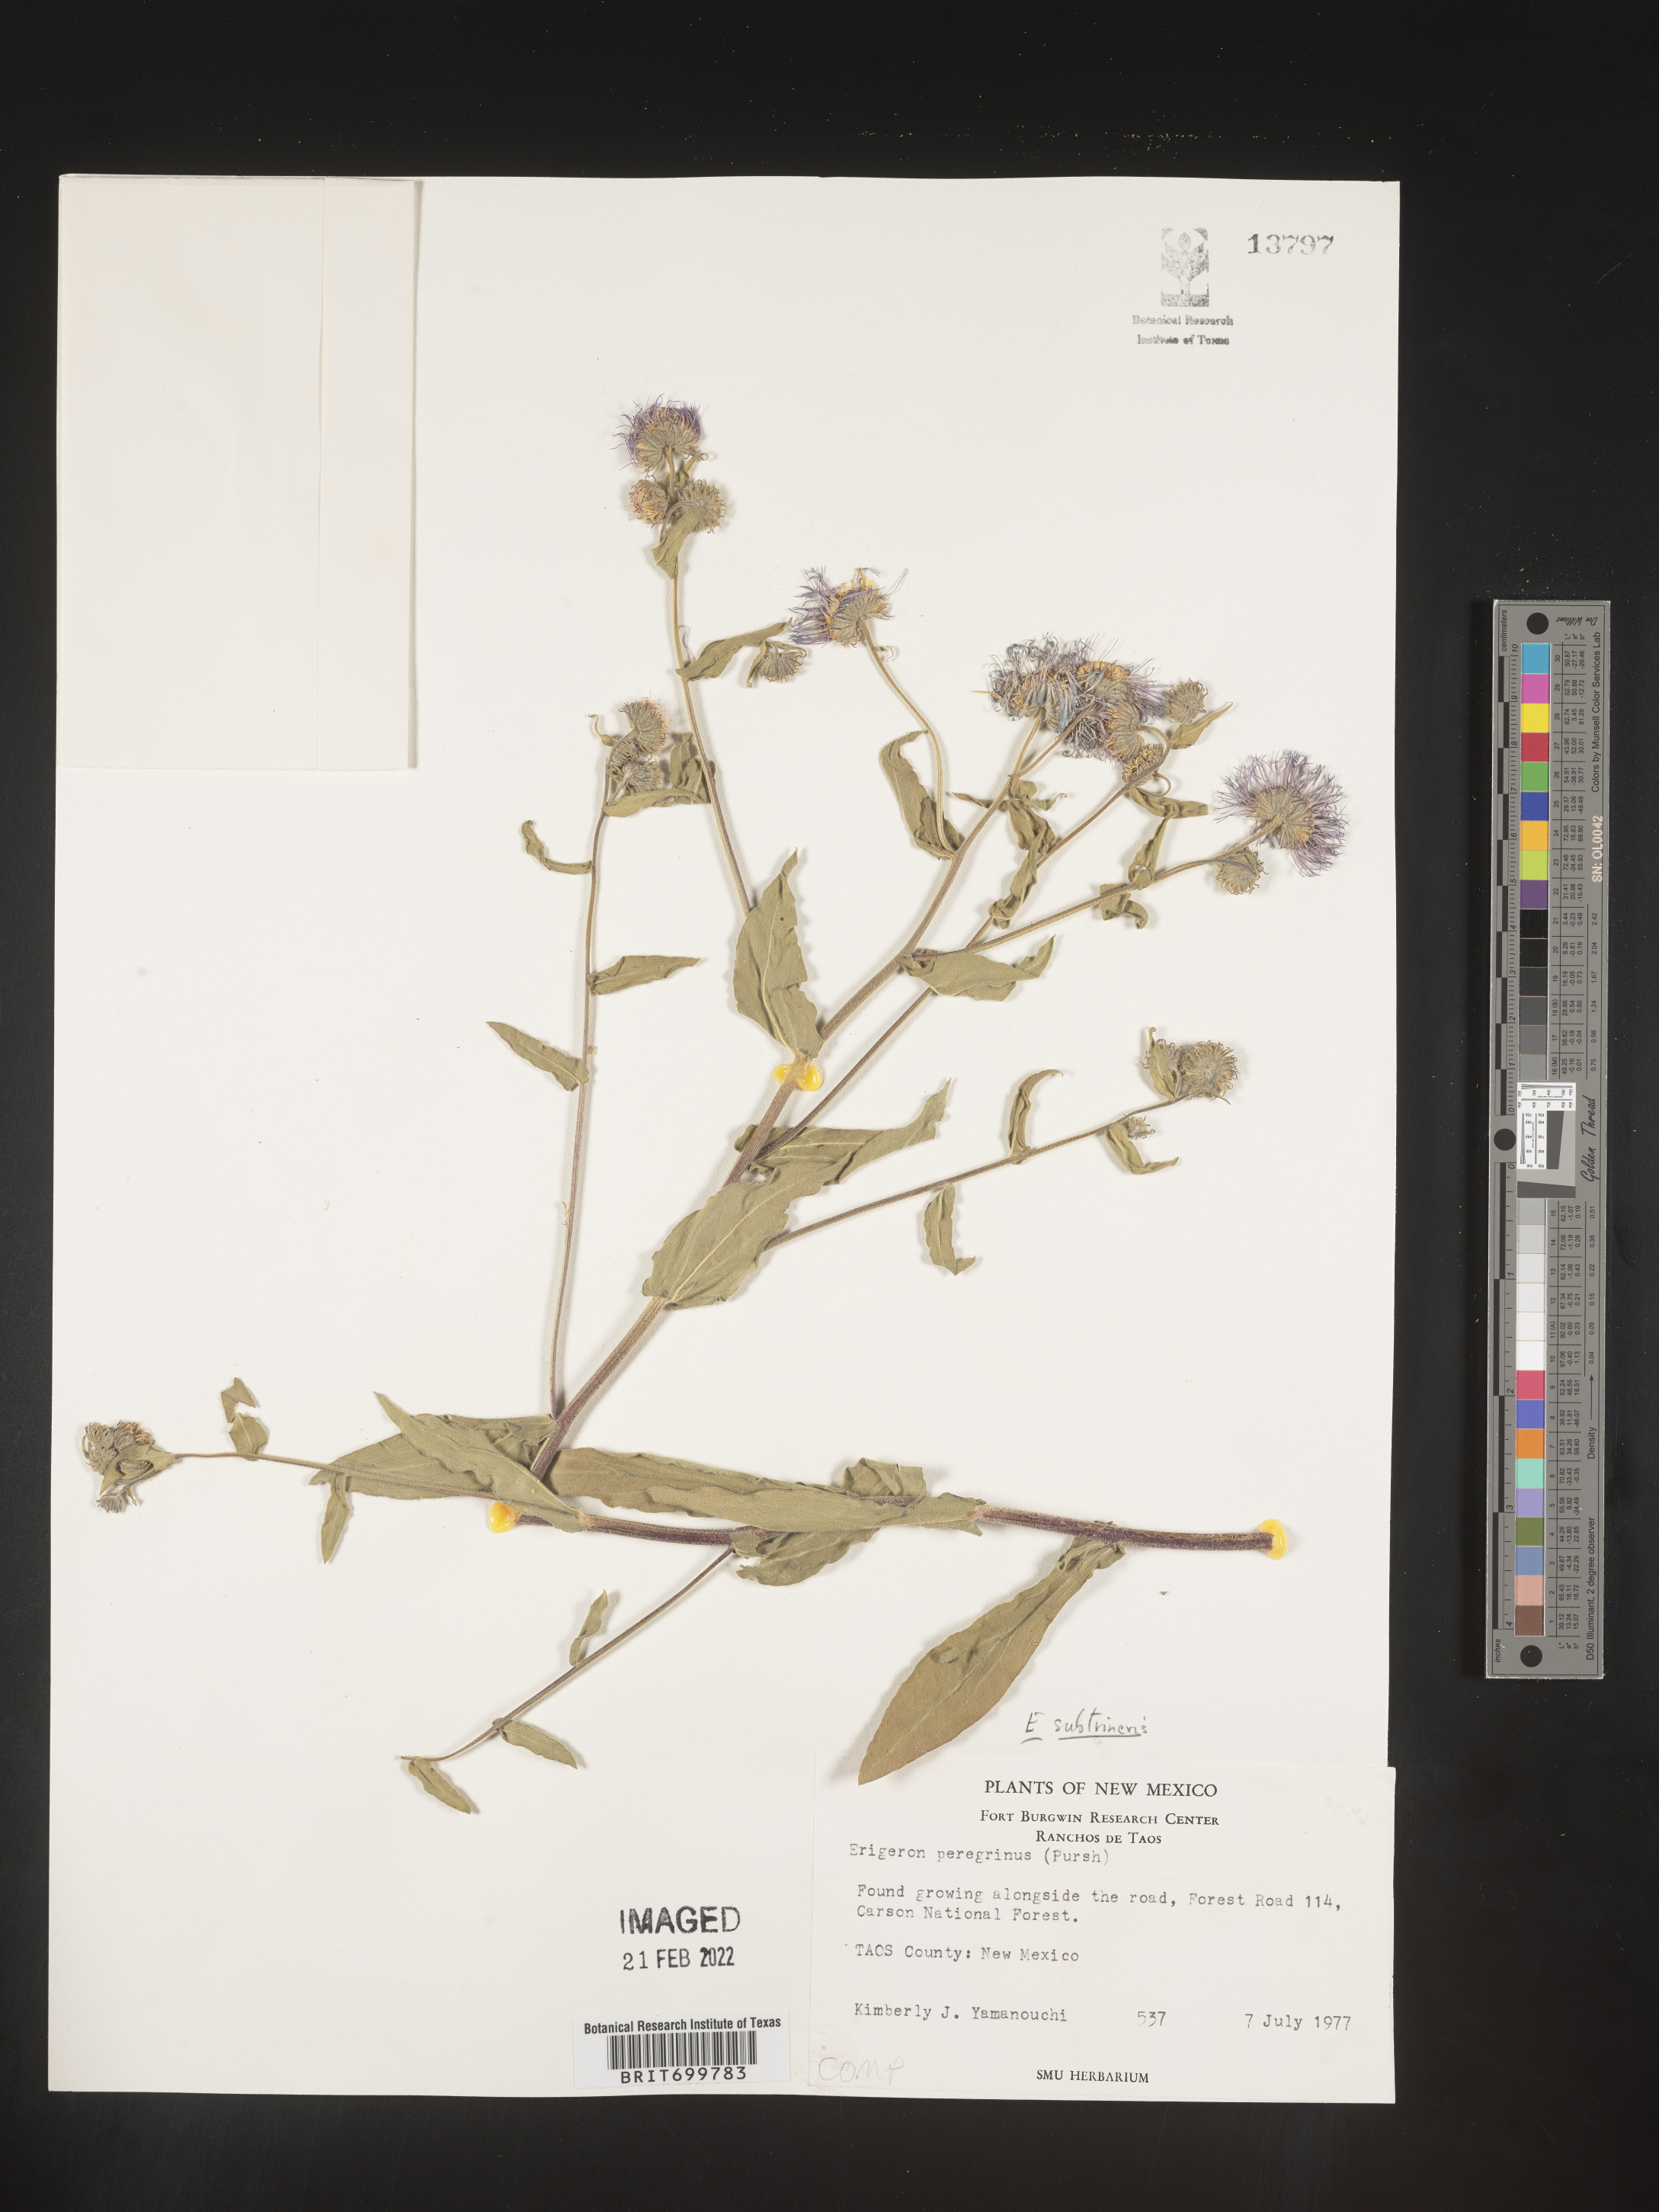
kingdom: Plantae
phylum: Tracheophyta
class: Magnoliopsida
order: Asterales
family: Asteraceae
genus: Erigeron
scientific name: Erigeron subtrinervis
